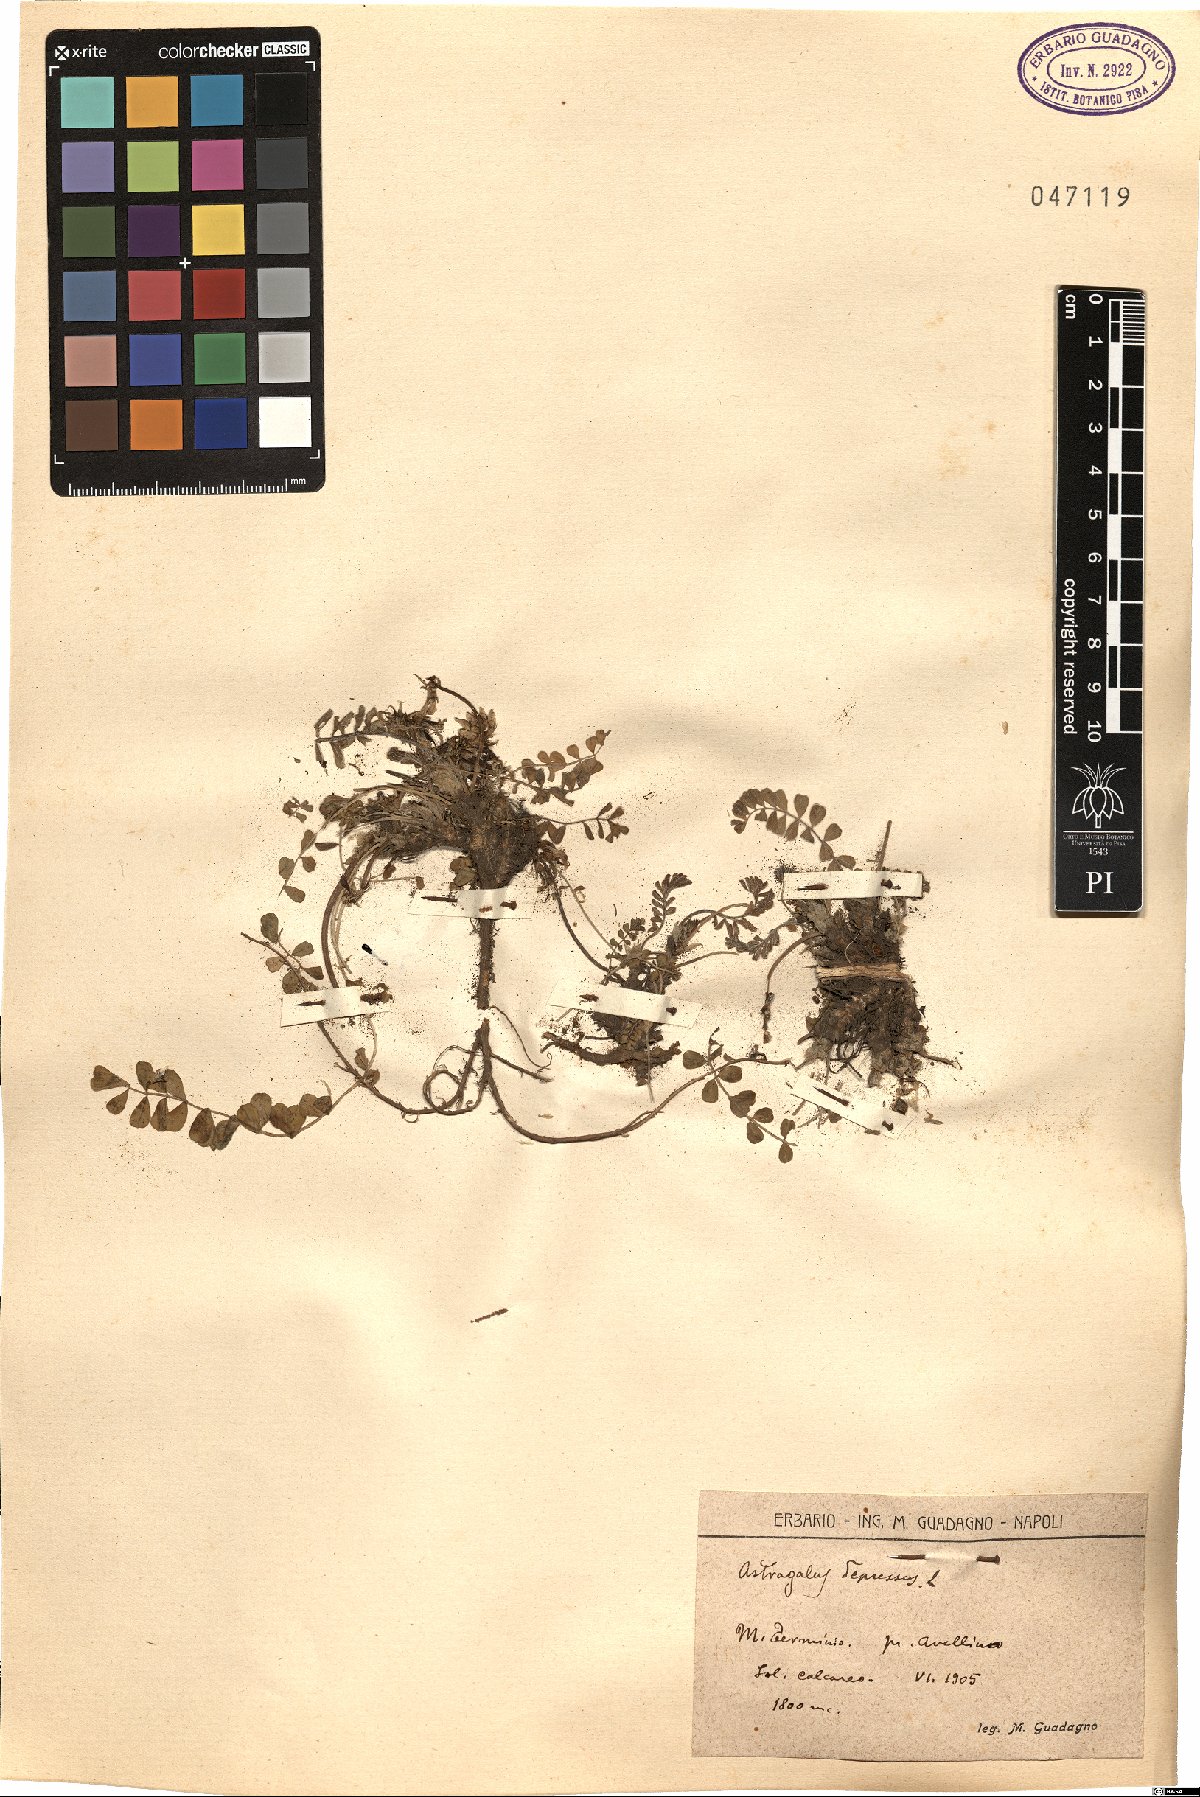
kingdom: Plantae
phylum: Tracheophyta
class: Magnoliopsida
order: Fabales
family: Fabaceae
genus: Astragalus
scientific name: Astragalus depressus
